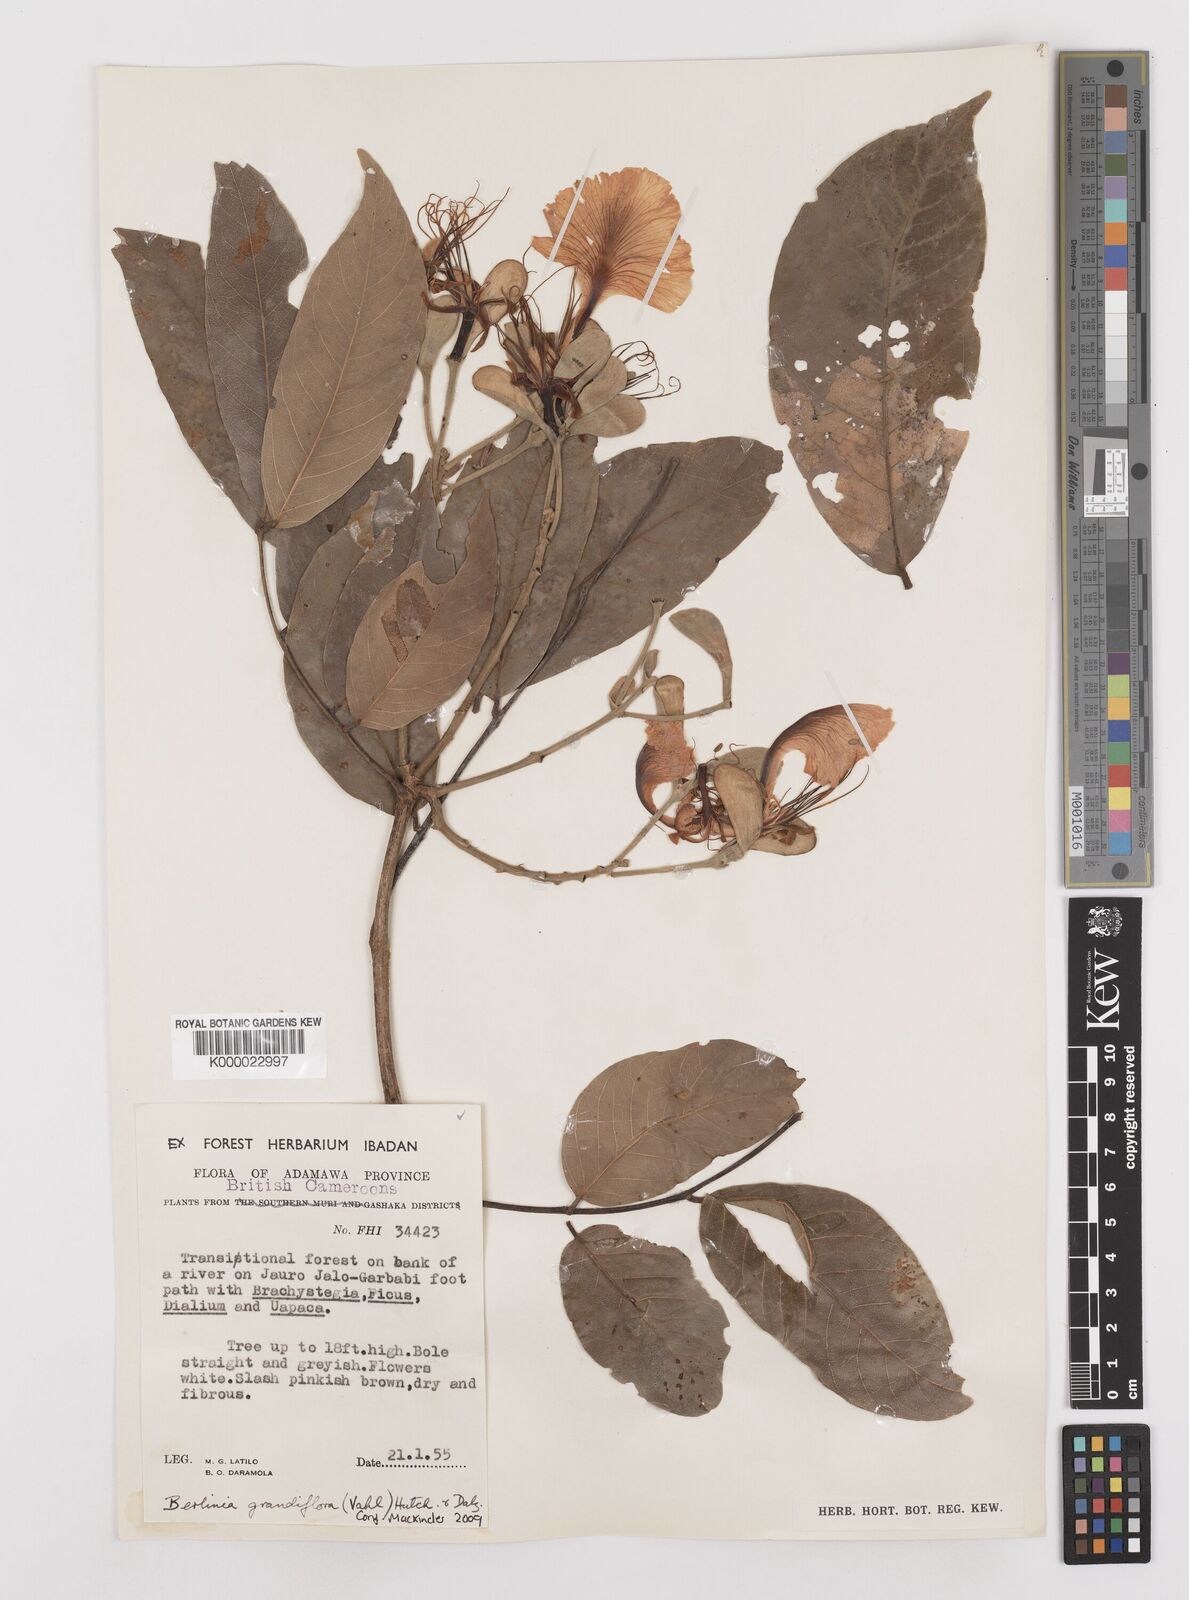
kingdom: Plantae
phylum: Tracheophyta
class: Magnoliopsida
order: Fabales
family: Fabaceae
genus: Berlinia
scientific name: Berlinia grandiflora
